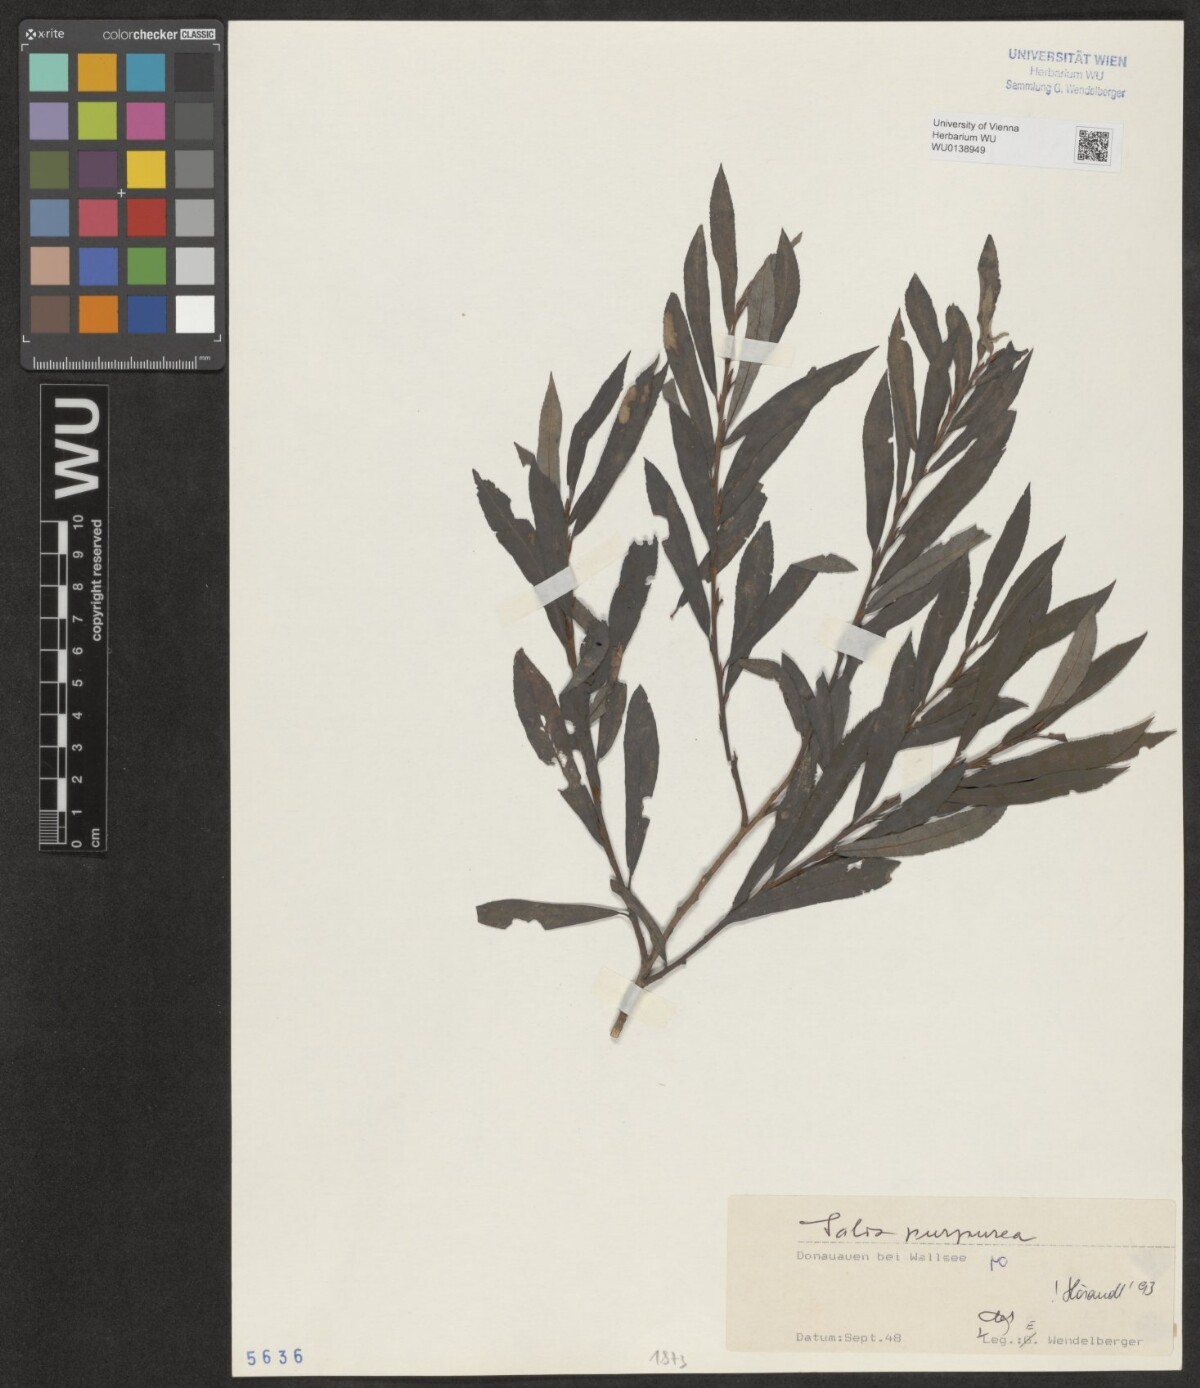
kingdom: Plantae
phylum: Tracheophyta
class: Magnoliopsida
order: Malpighiales
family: Salicaceae
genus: Salix
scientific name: Salix purpurea
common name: Purple willow
